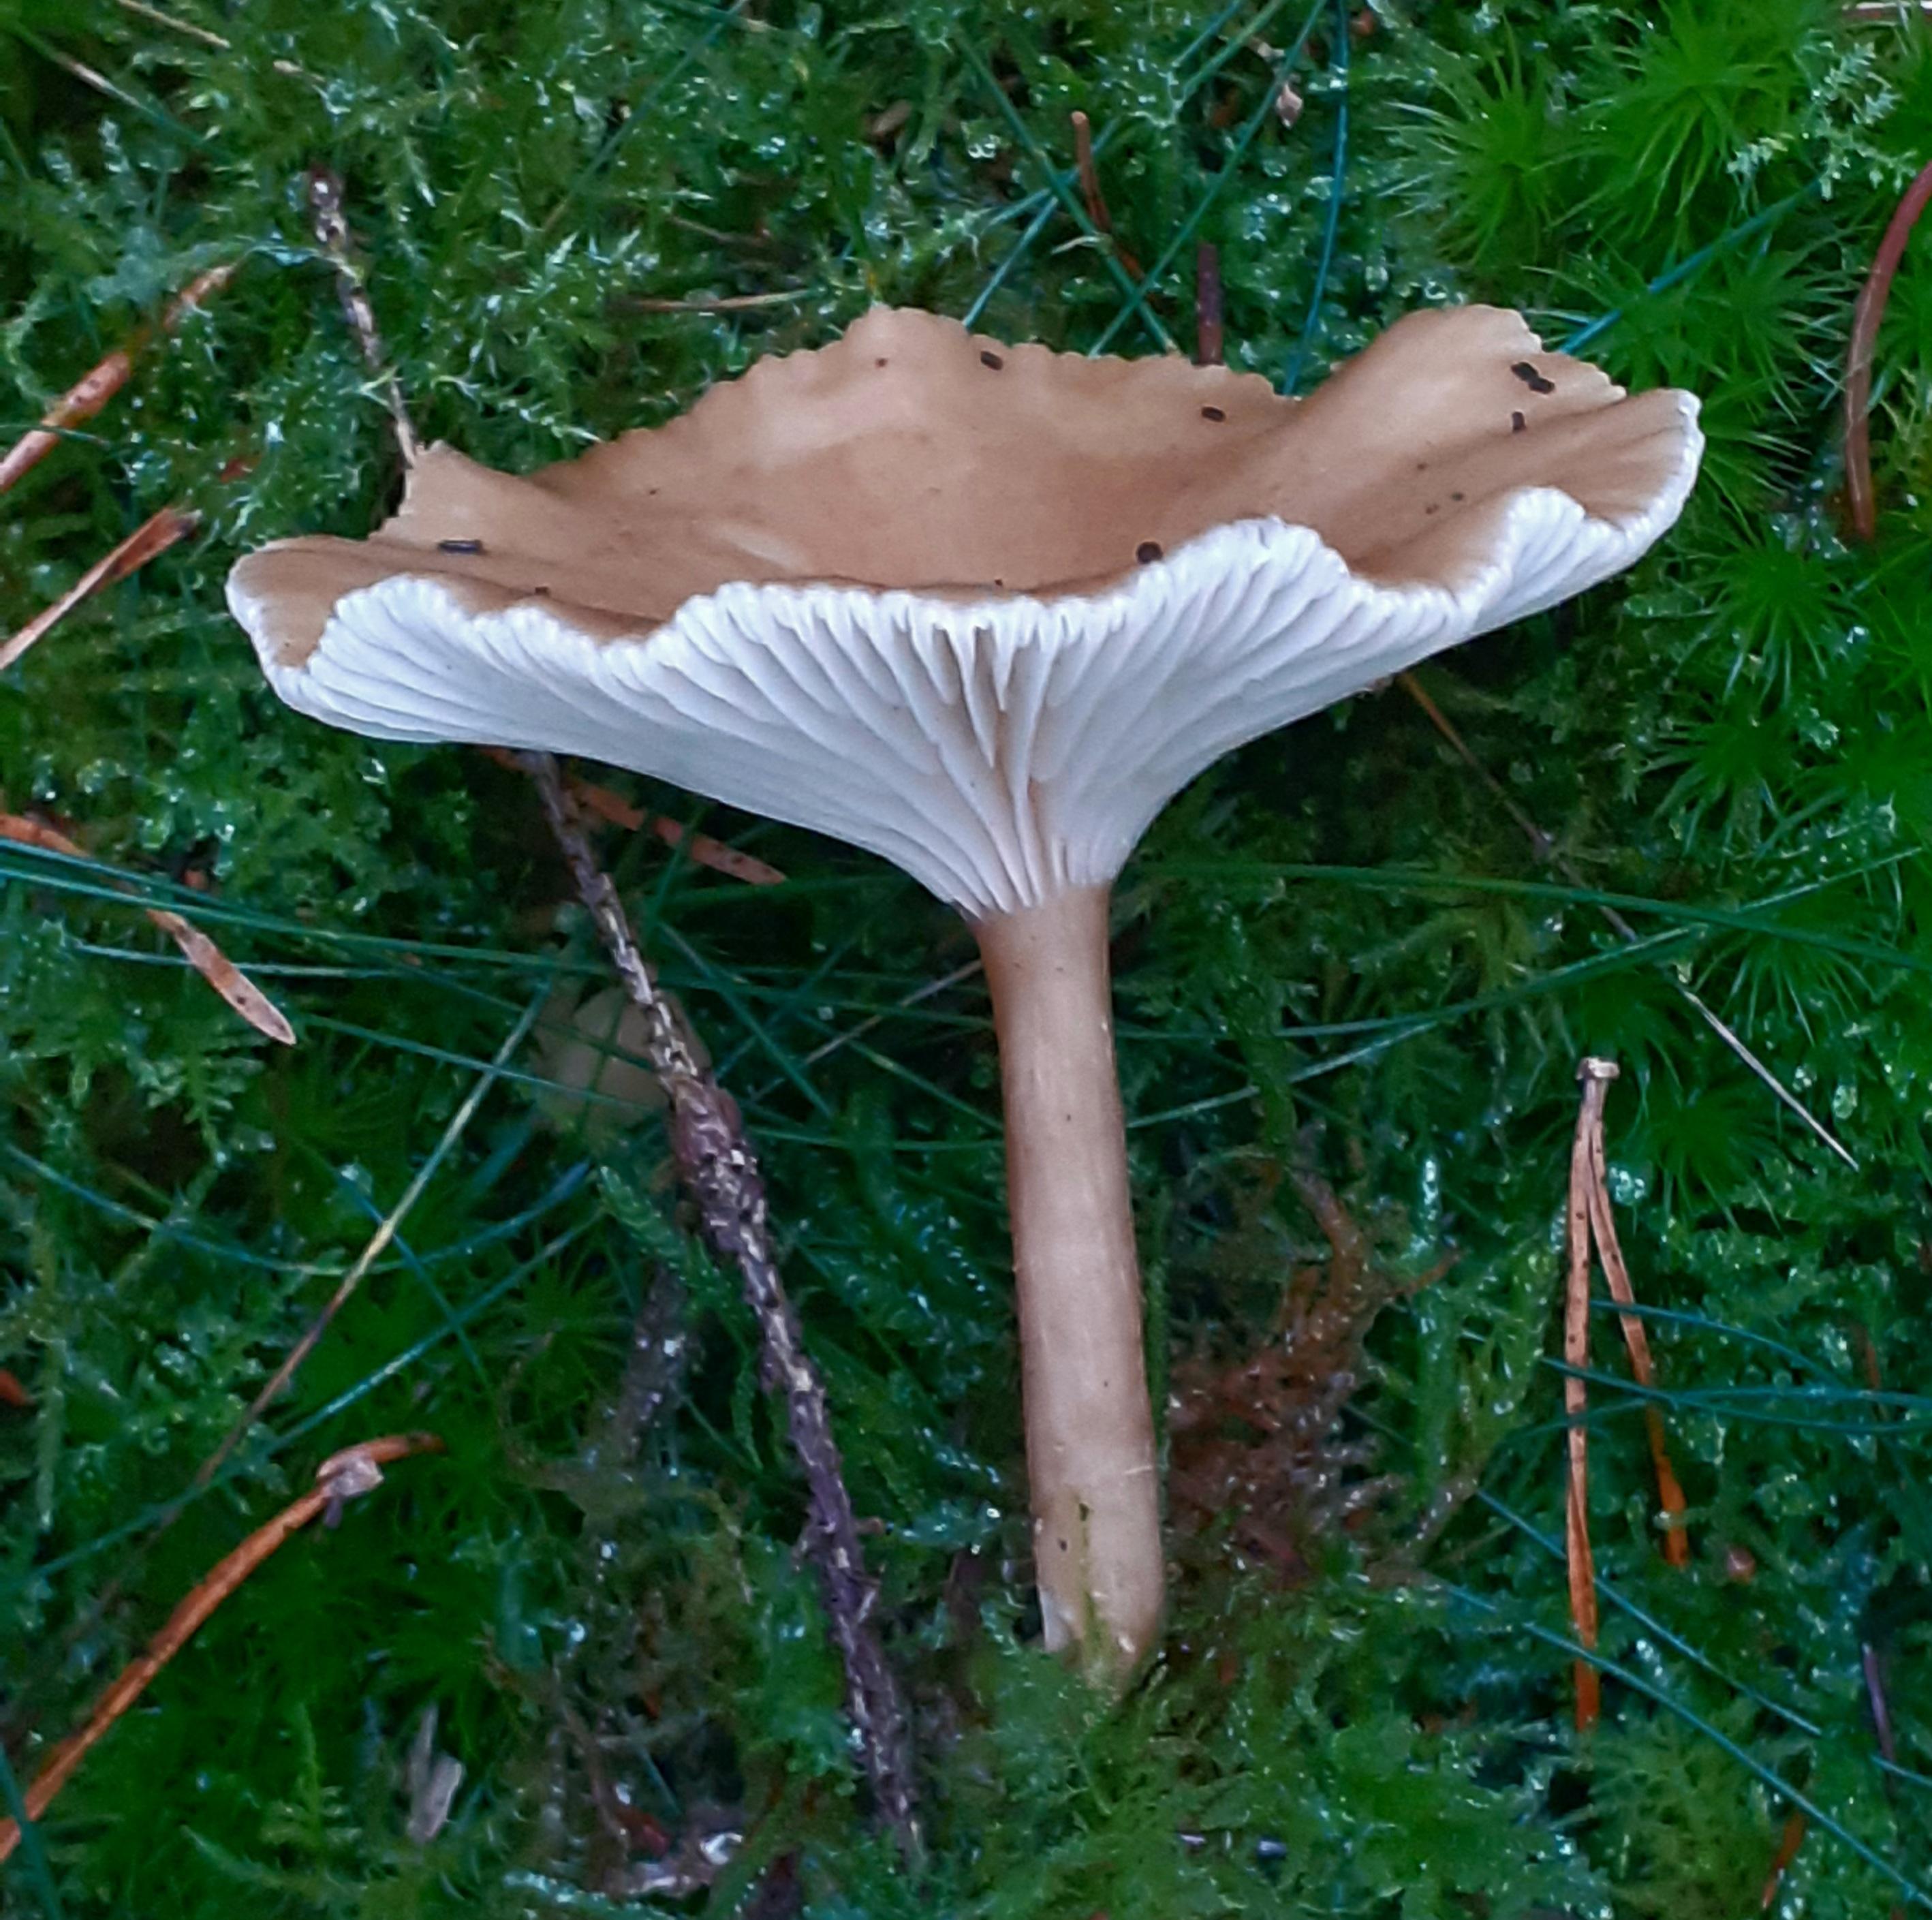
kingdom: Fungi
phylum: Basidiomycota
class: Agaricomycetes
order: Agaricales
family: Tricholomataceae
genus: Clitocybe
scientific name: Clitocybe costata
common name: brunstokket tragthat
